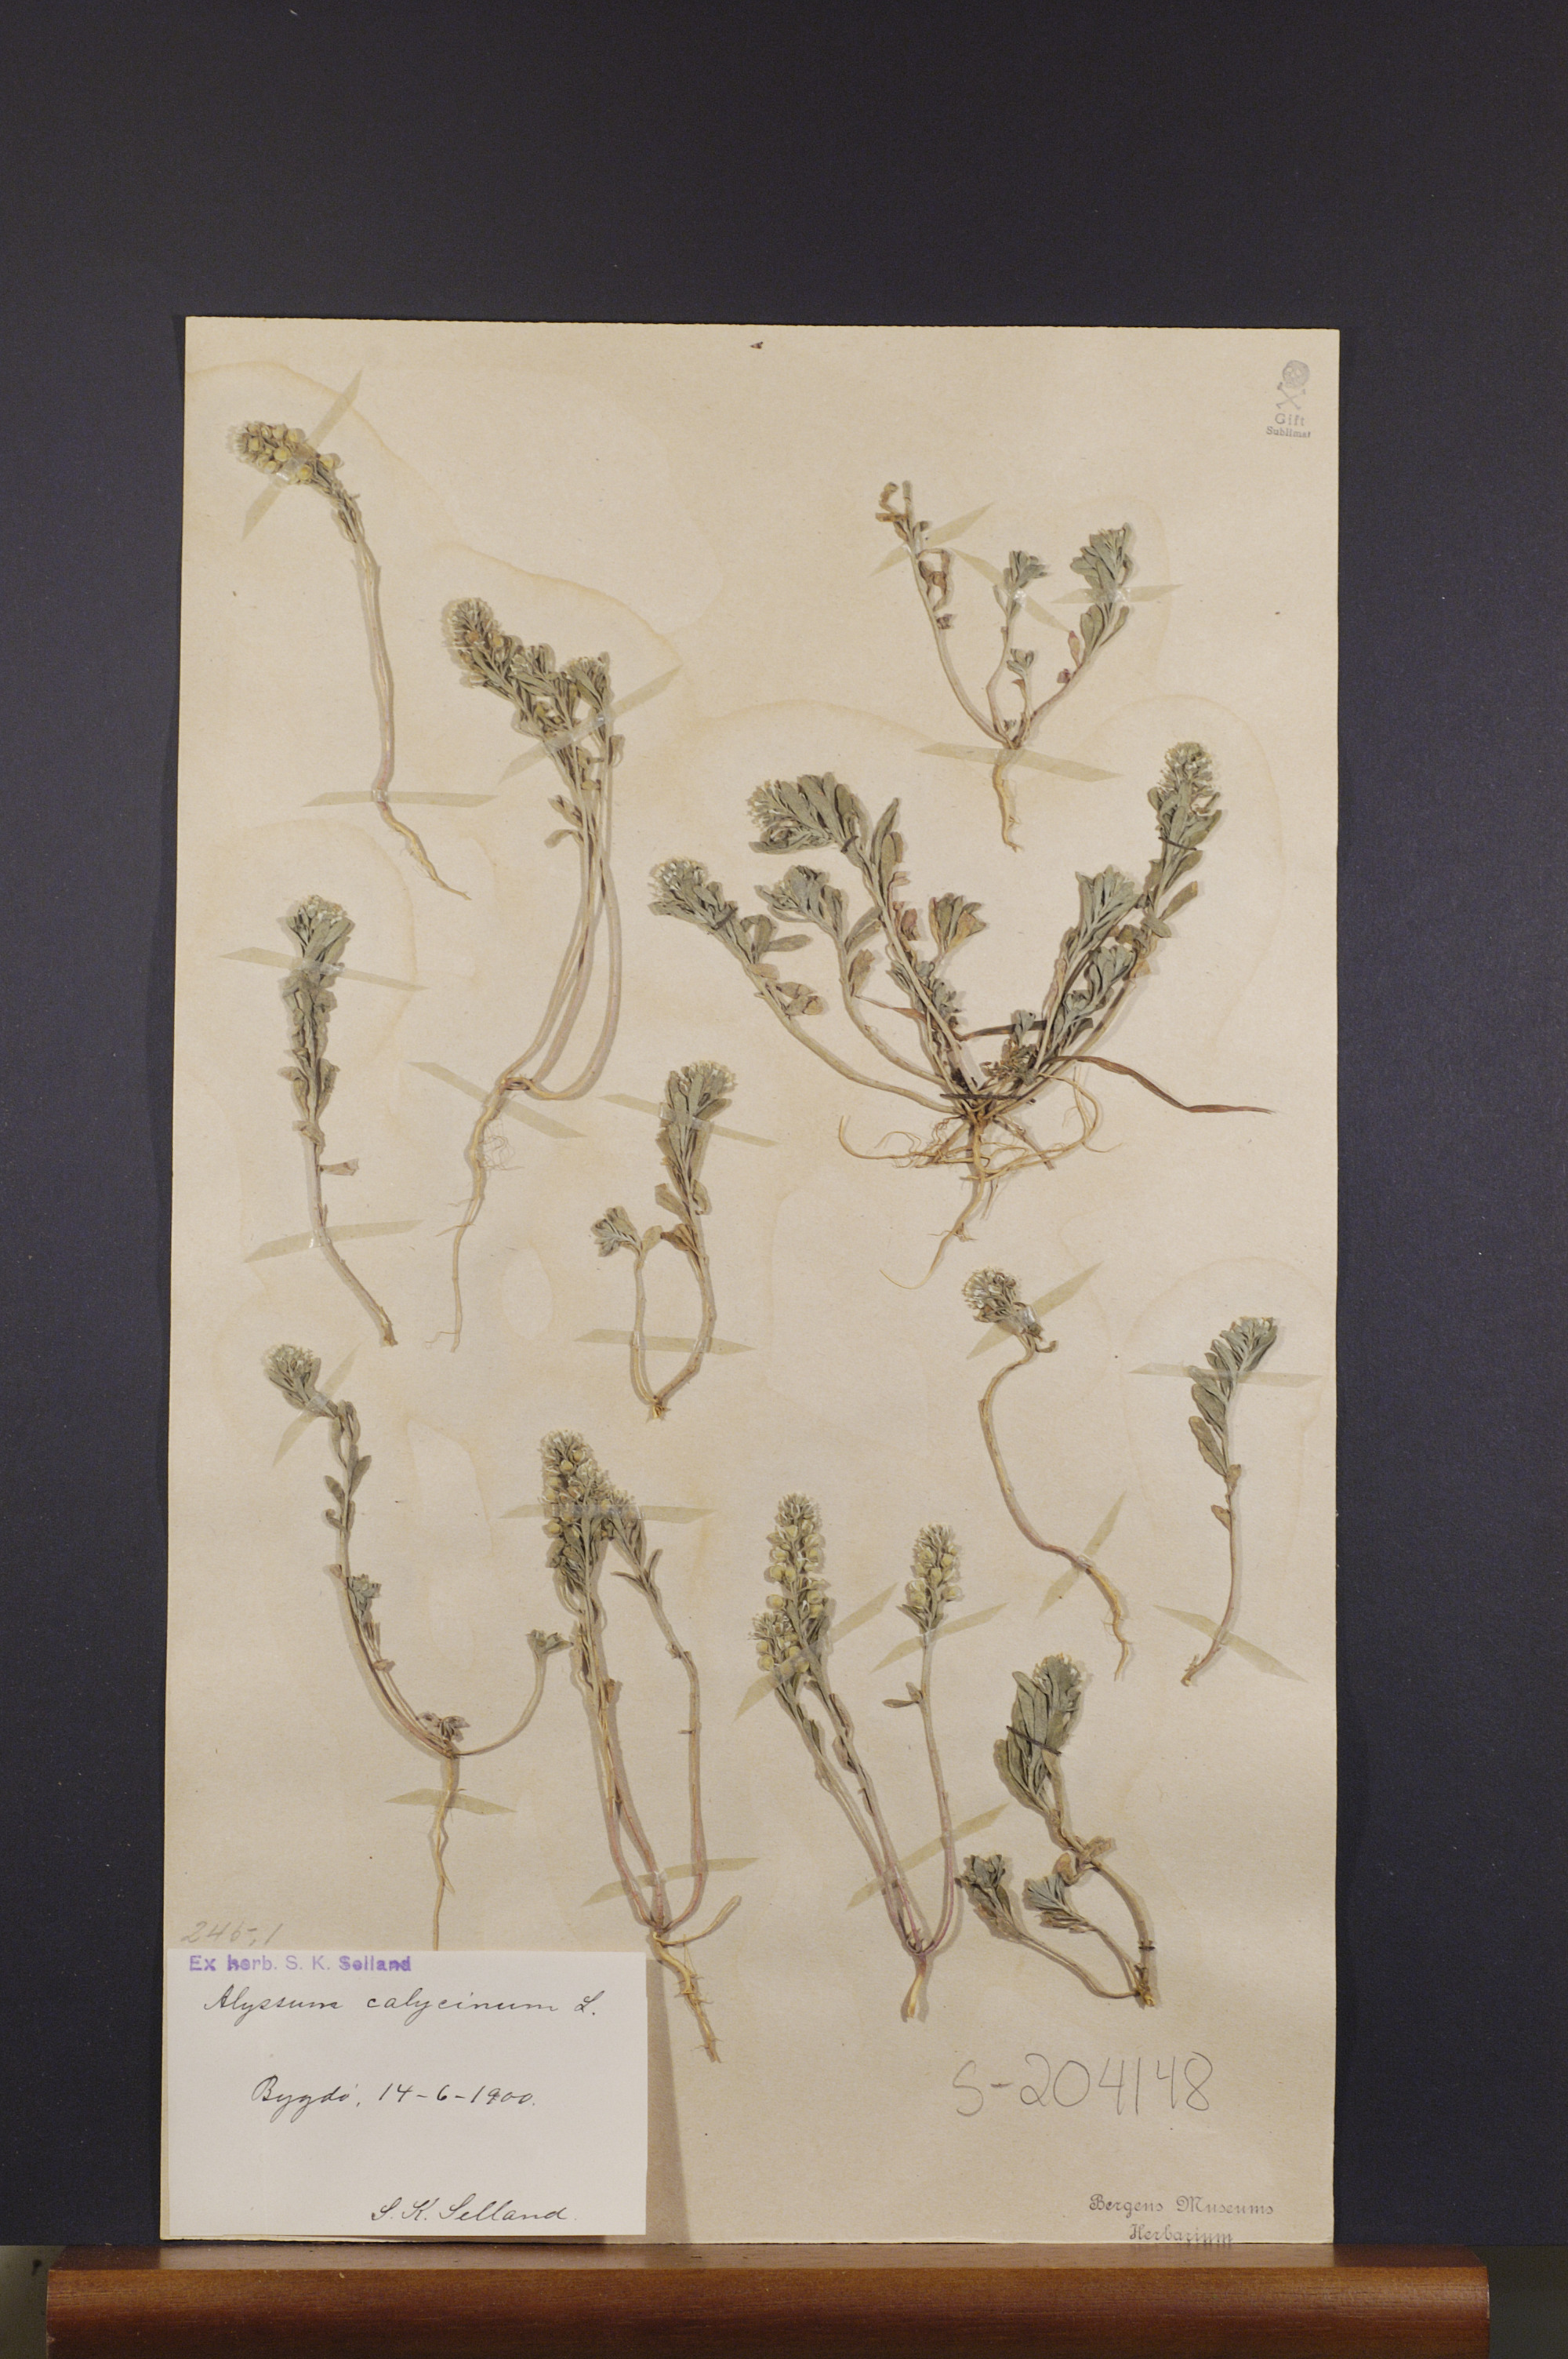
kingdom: Plantae
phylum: Tracheophyta
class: Magnoliopsida
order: Brassicales
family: Brassicaceae
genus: Alyssum
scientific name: Alyssum alyssoides
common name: Small alison
